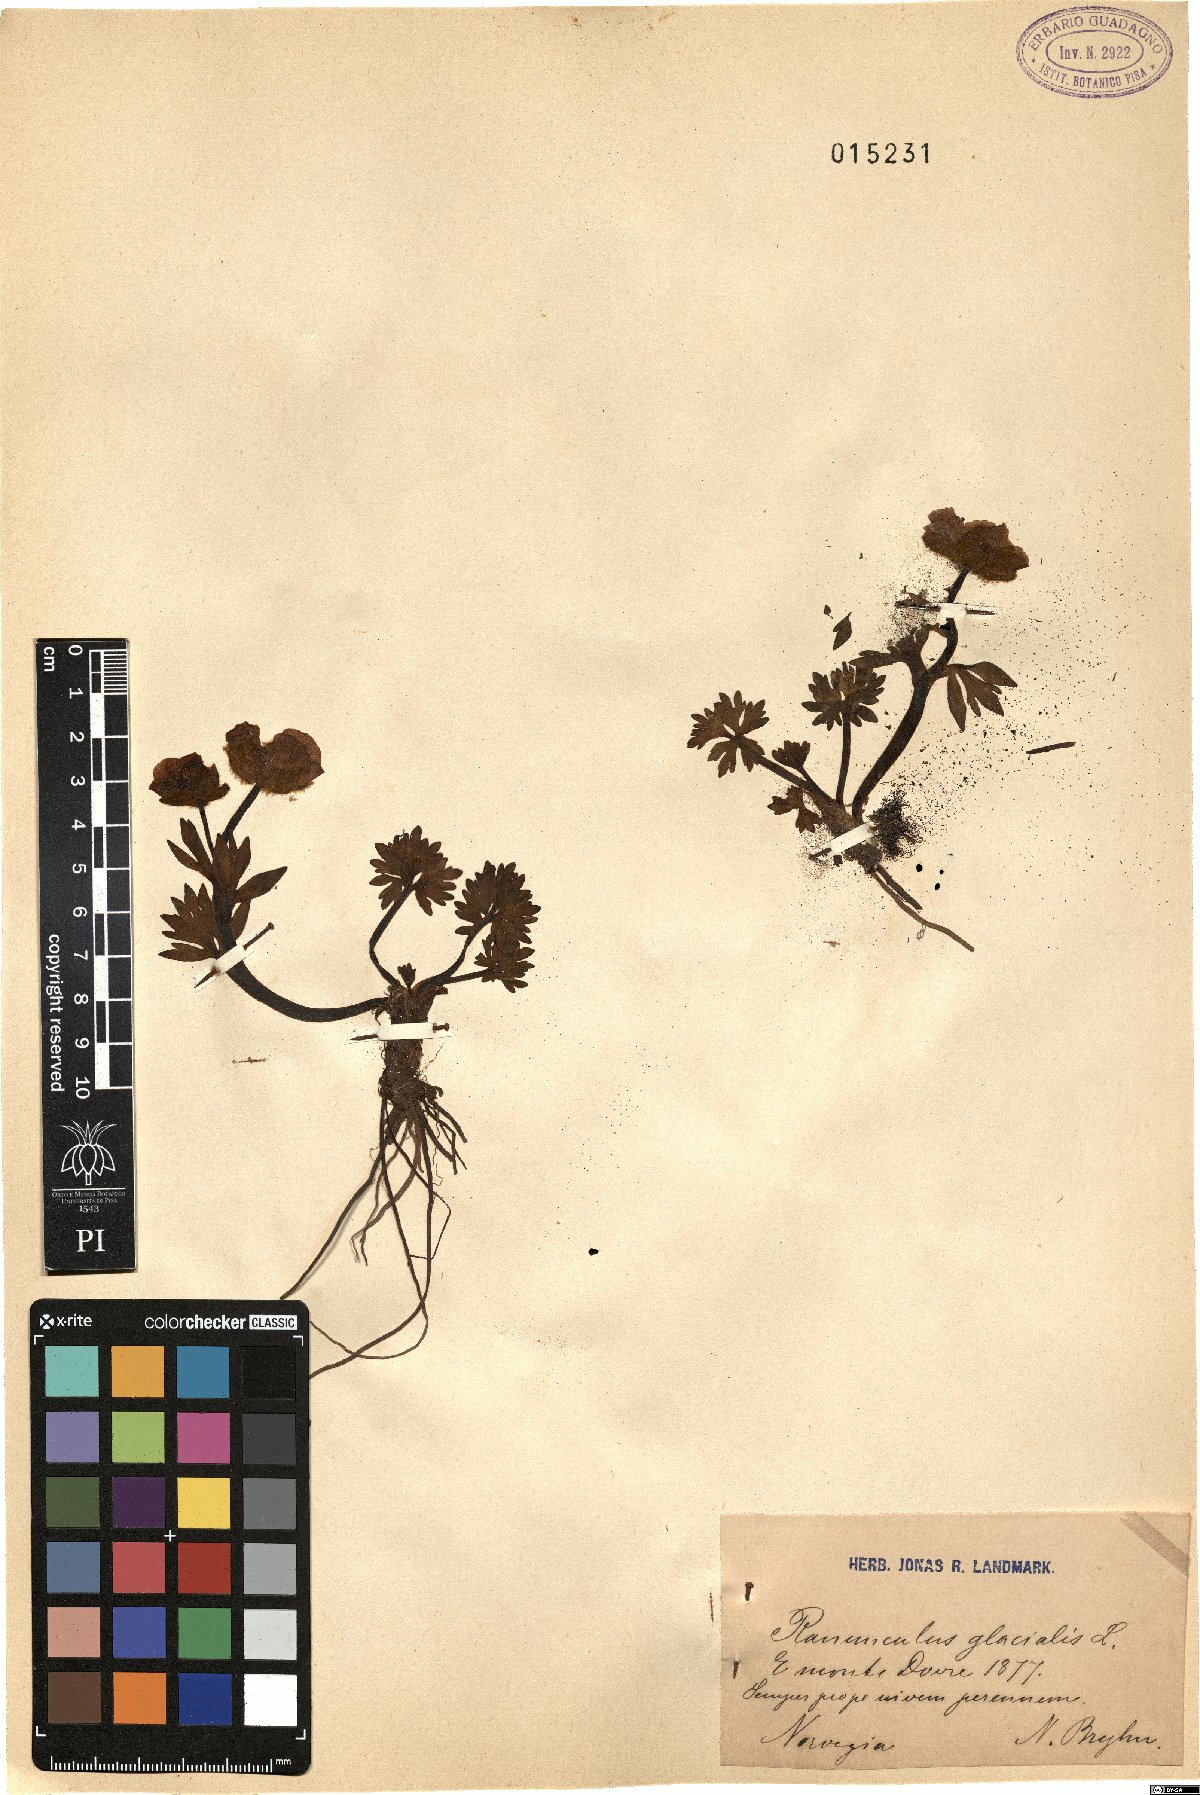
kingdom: Plantae
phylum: Tracheophyta
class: Magnoliopsida
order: Ranunculales
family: Ranunculaceae
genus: Ranunculus
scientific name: Ranunculus glacialis
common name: Glacier buttercup
